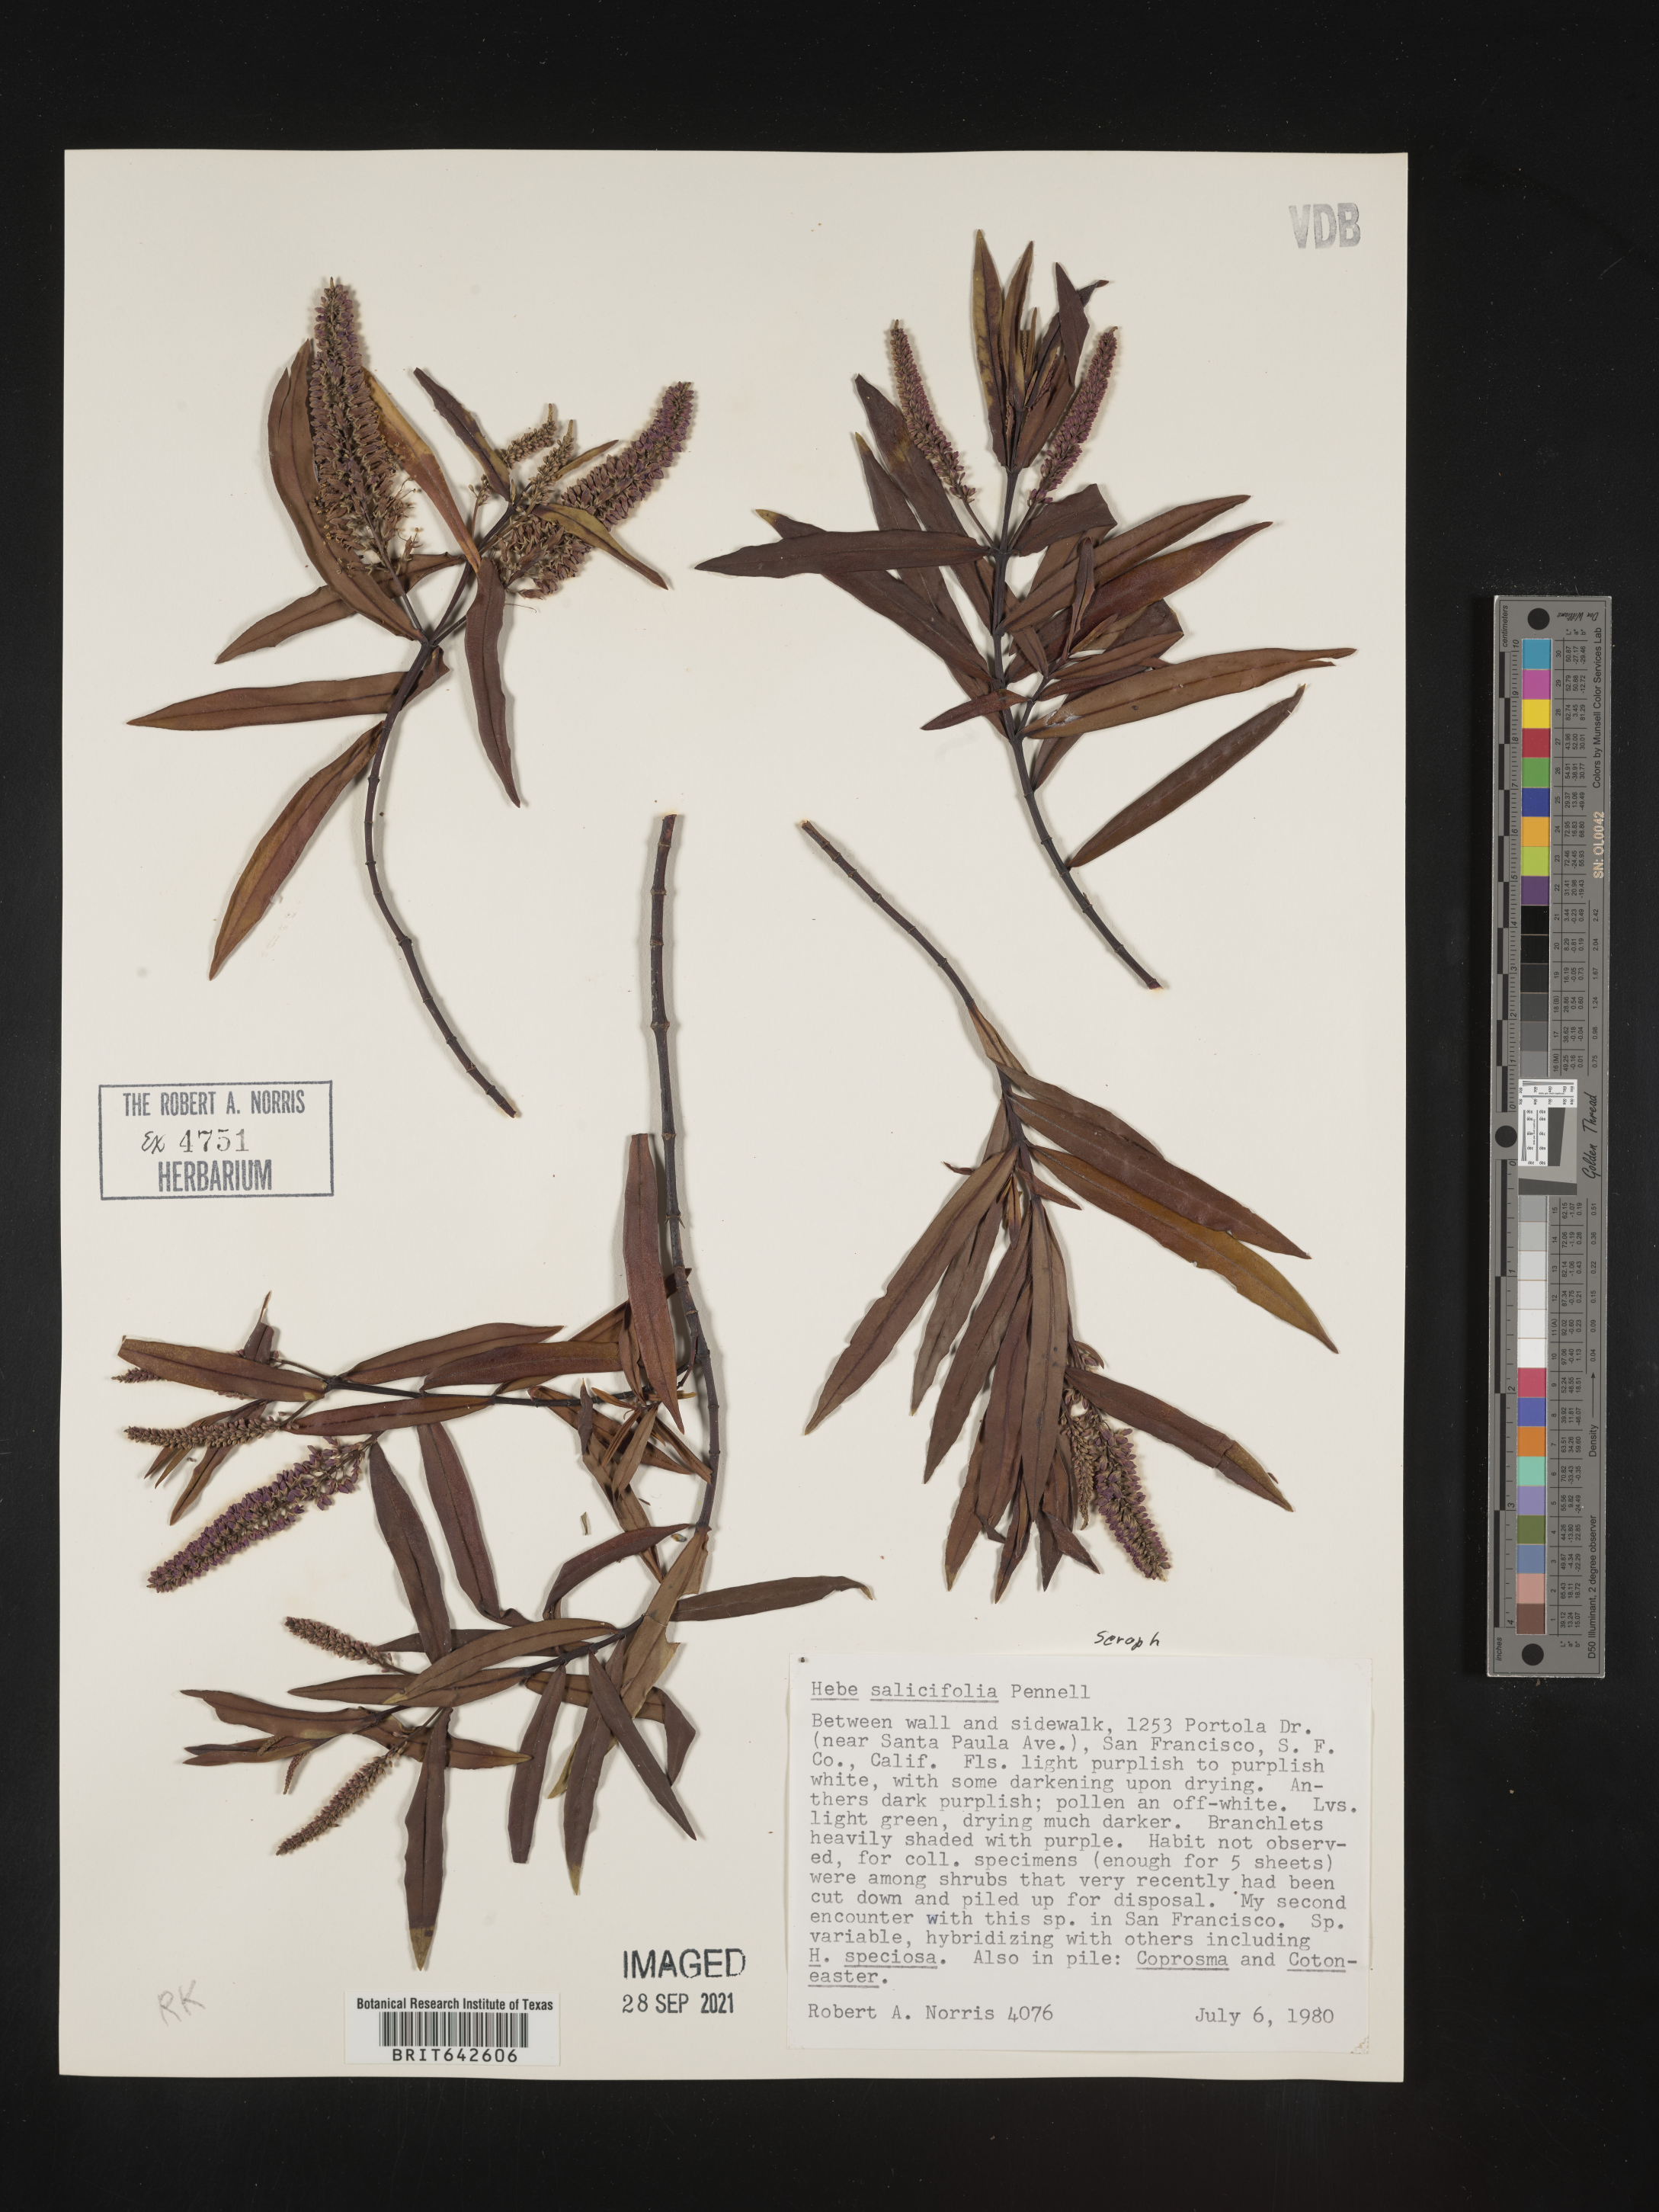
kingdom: Plantae
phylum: Tracheophyta
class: Magnoliopsida
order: Lamiales
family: Plantaginaceae
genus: Veronica
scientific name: Veronica
